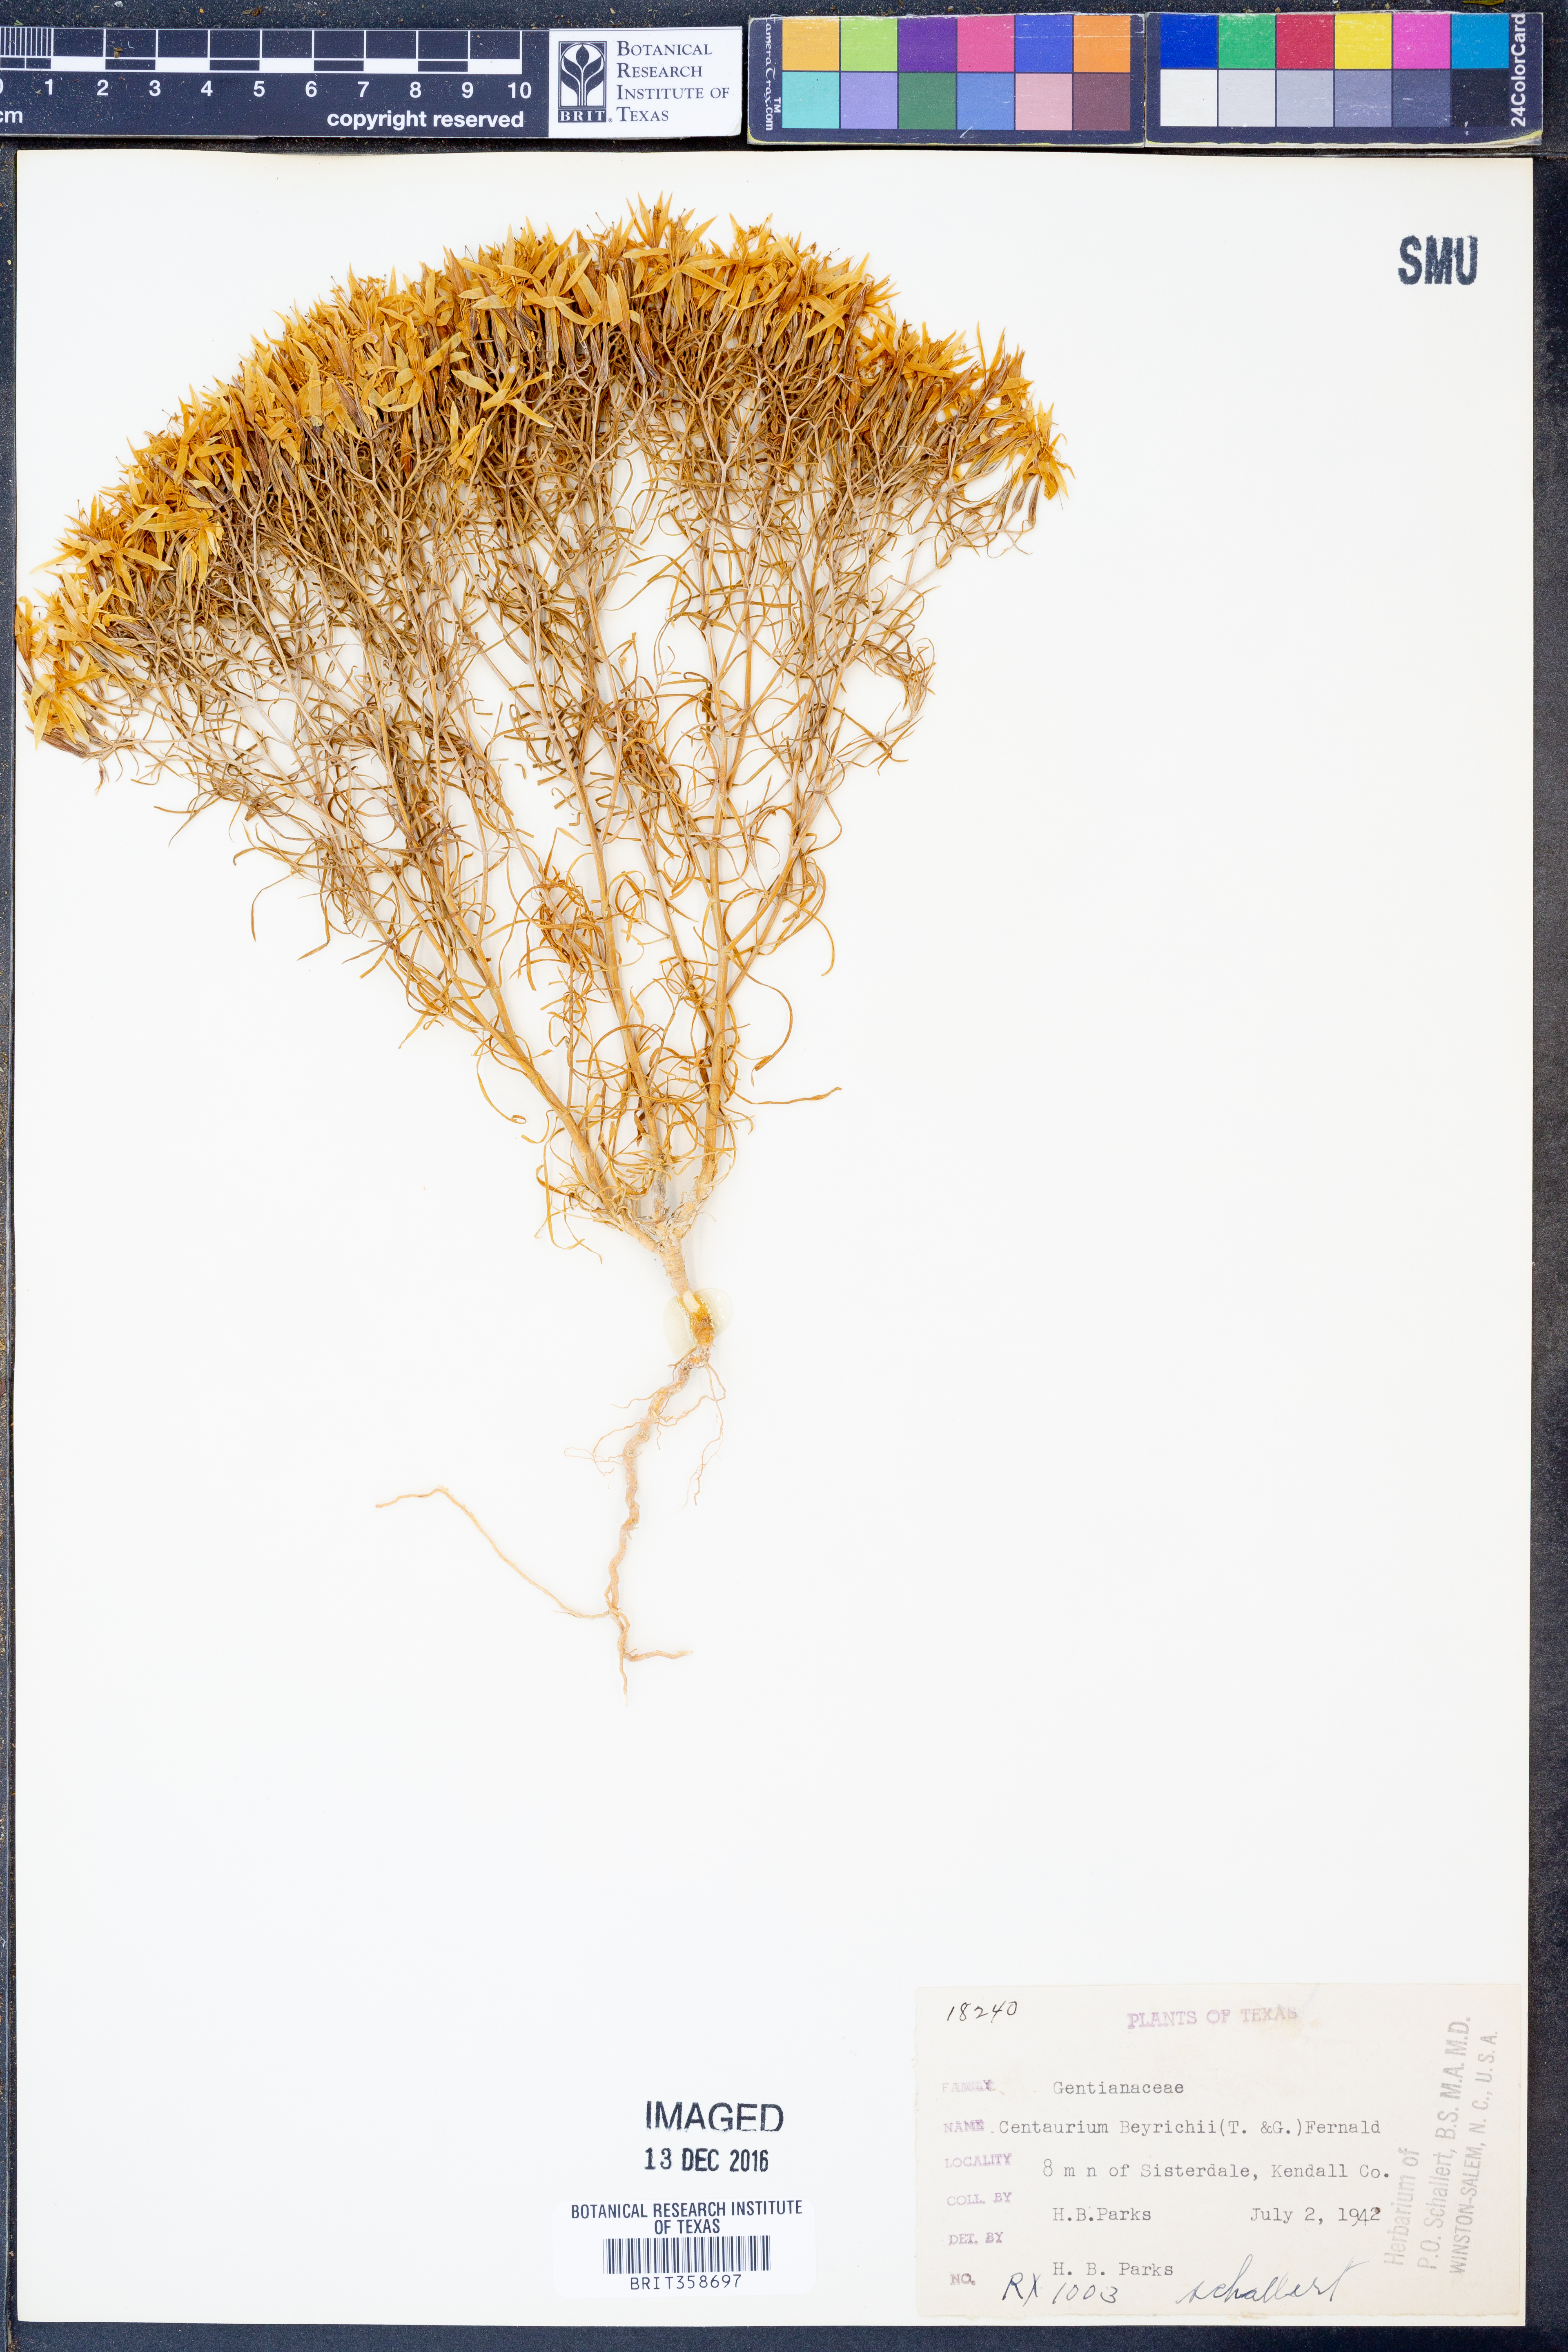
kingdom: Plantae
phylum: Tracheophyta
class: Magnoliopsida
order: Gentianales
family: Gentianaceae
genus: Zeltnera
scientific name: Zeltnera beyrichii
